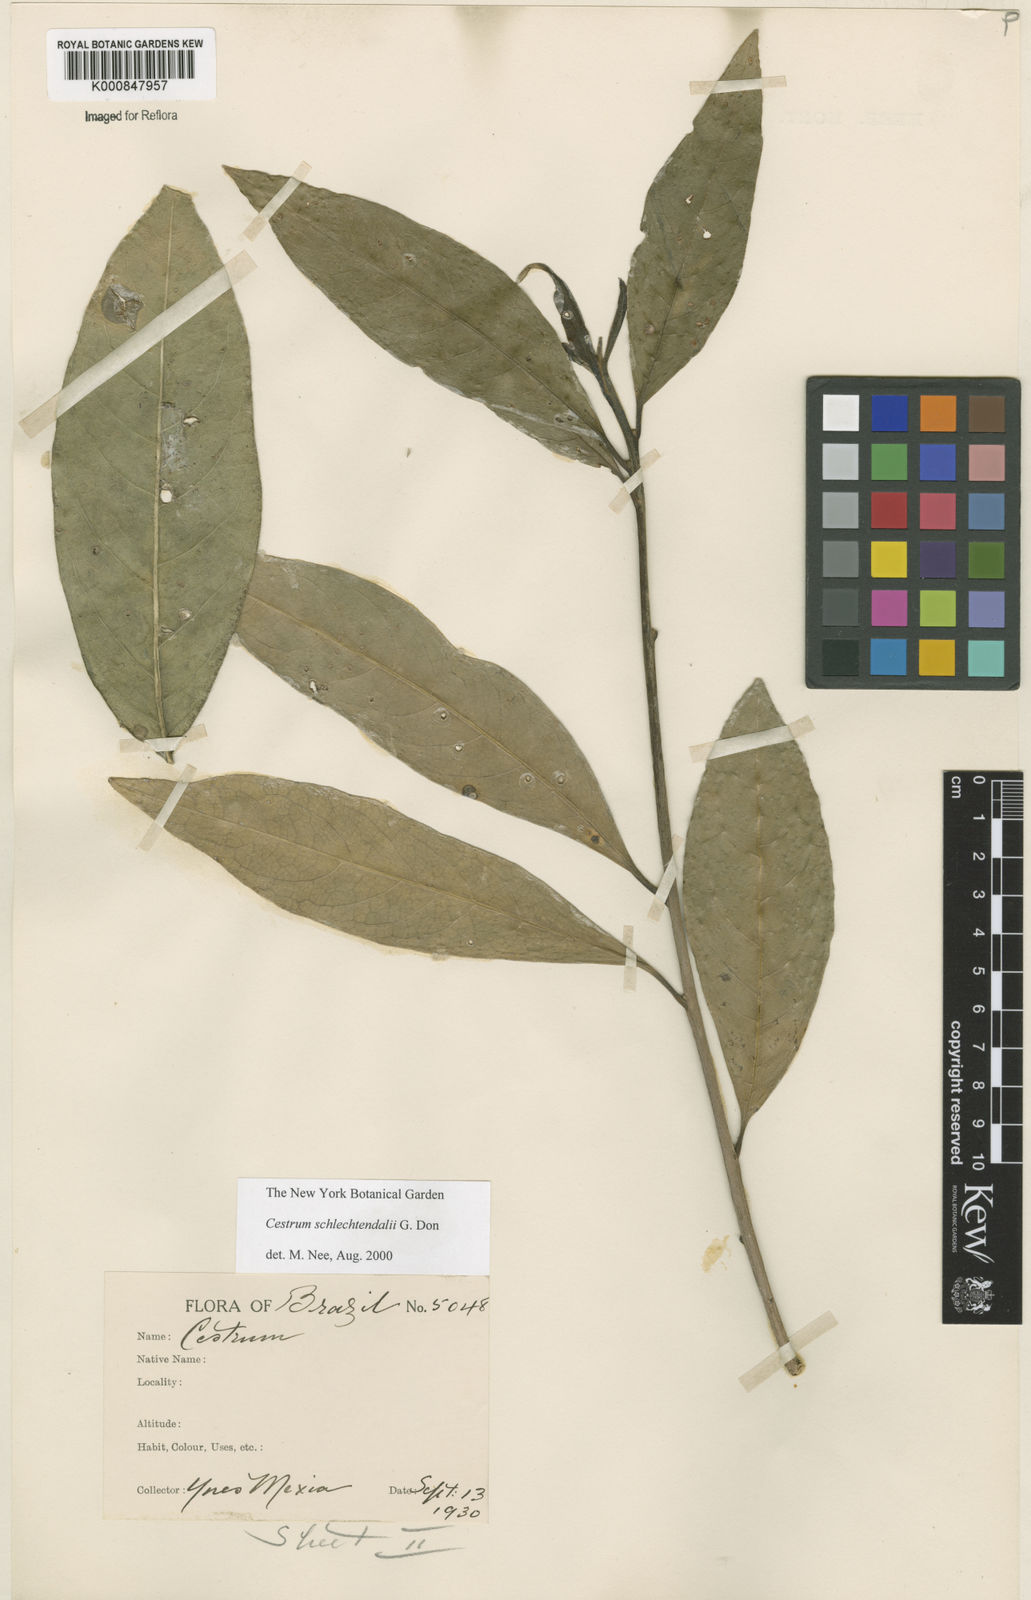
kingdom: Plantae
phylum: Tracheophyta
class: Magnoliopsida
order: Solanales
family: Solanaceae
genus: Cestrum
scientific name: Cestrum schlechtendalii
